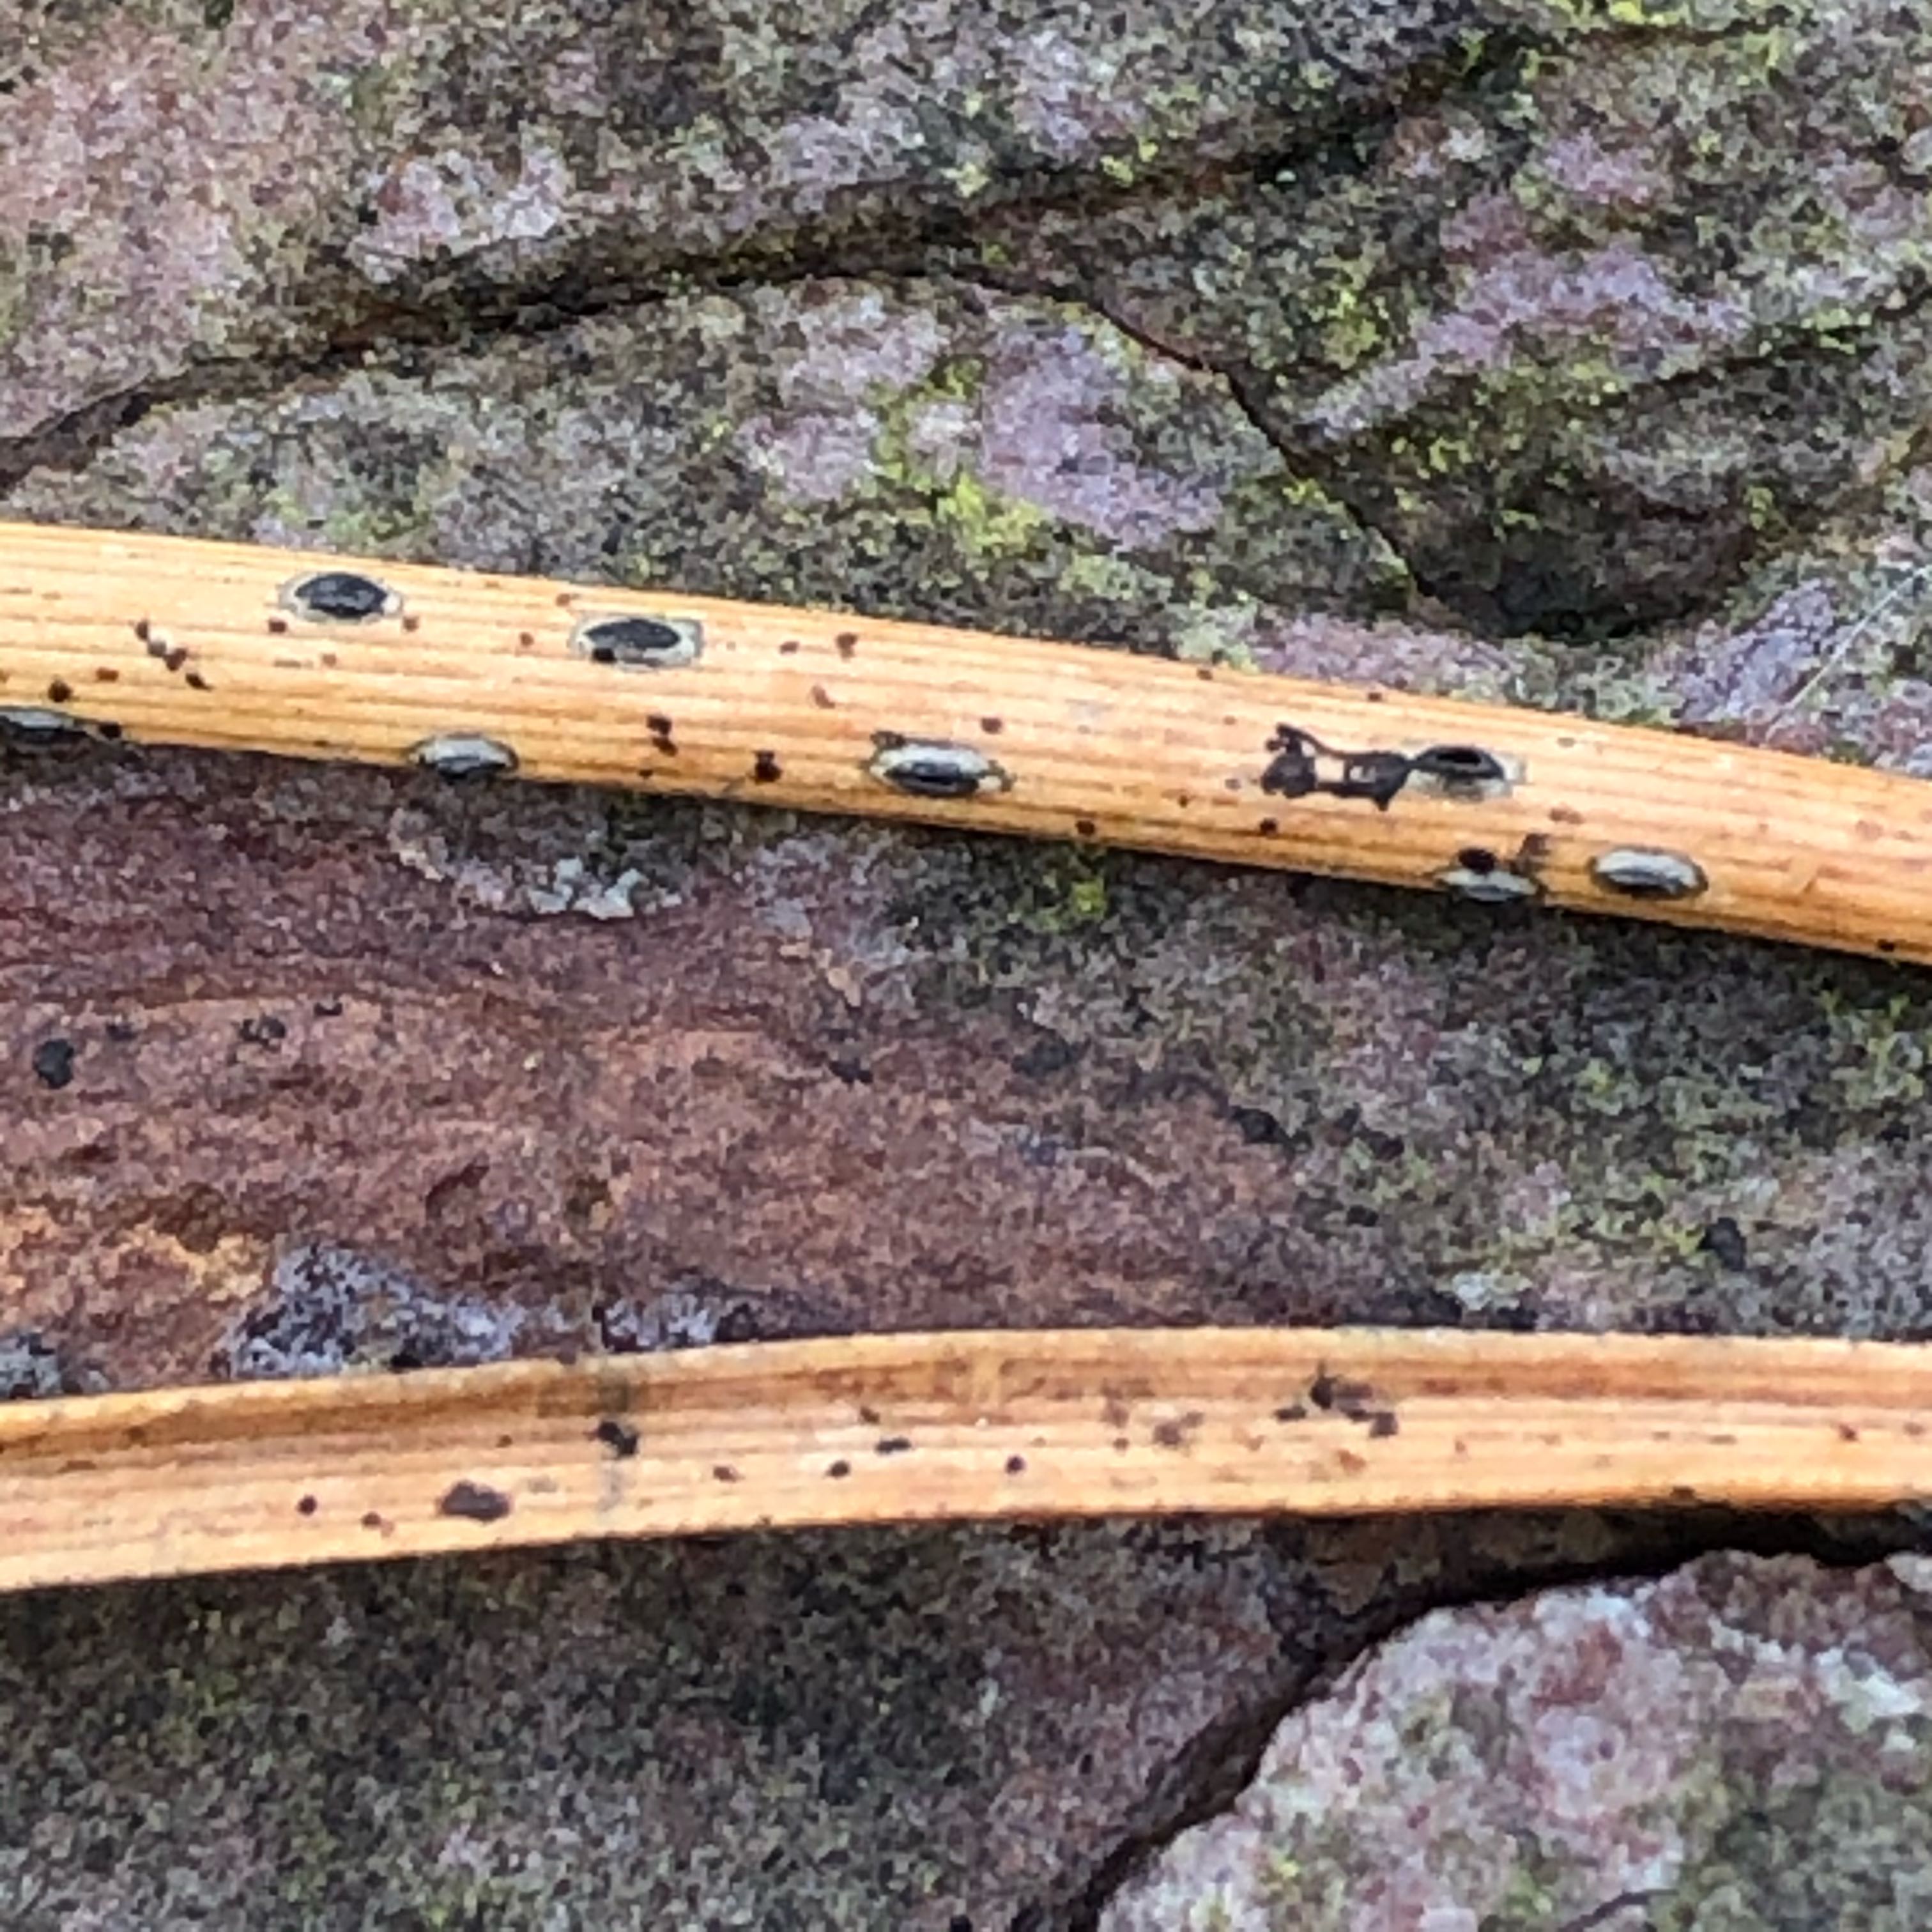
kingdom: Fungi
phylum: Ascomycota
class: Leotiomycetes
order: Rhytismatales
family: Rhytismataceae
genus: Lophodermium
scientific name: Lophodermium
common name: fureplet
